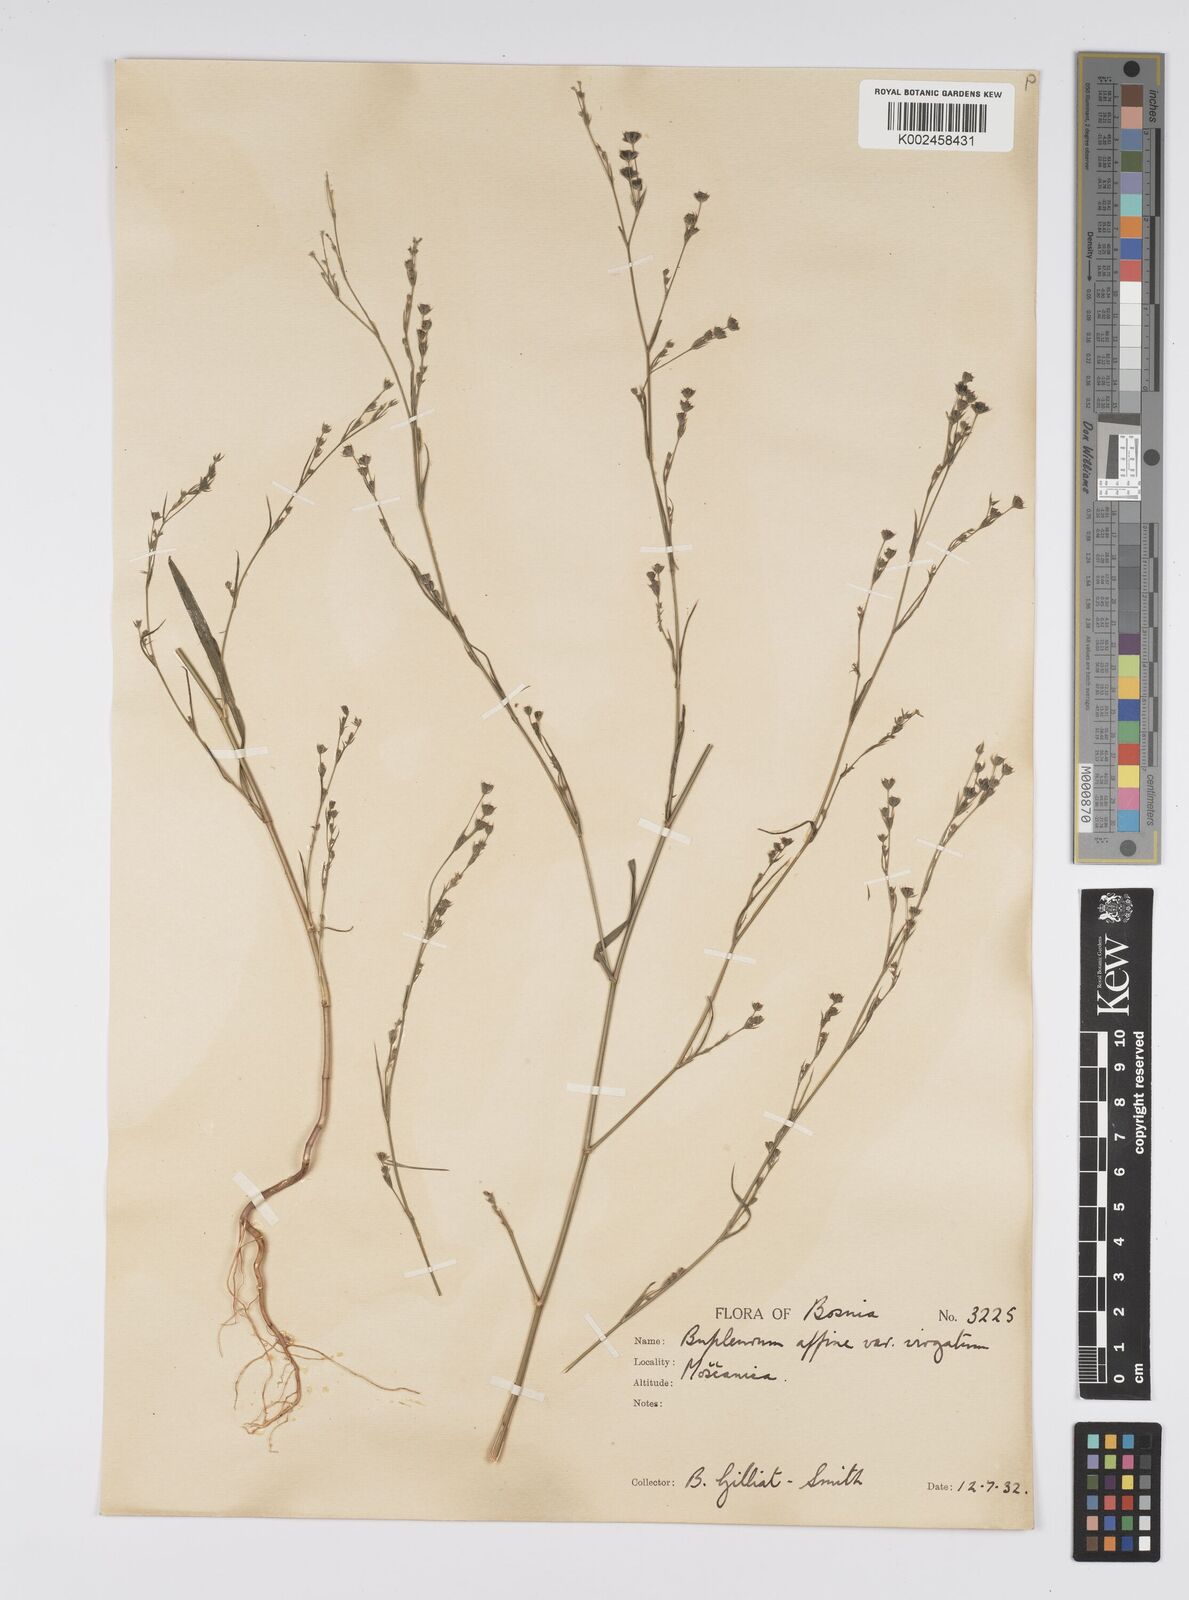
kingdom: Plantae
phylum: Tracheophyta
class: Magnoliopsida
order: Apiales
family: Apiaceae
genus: Bupleurum
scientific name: Bupleurum affine
